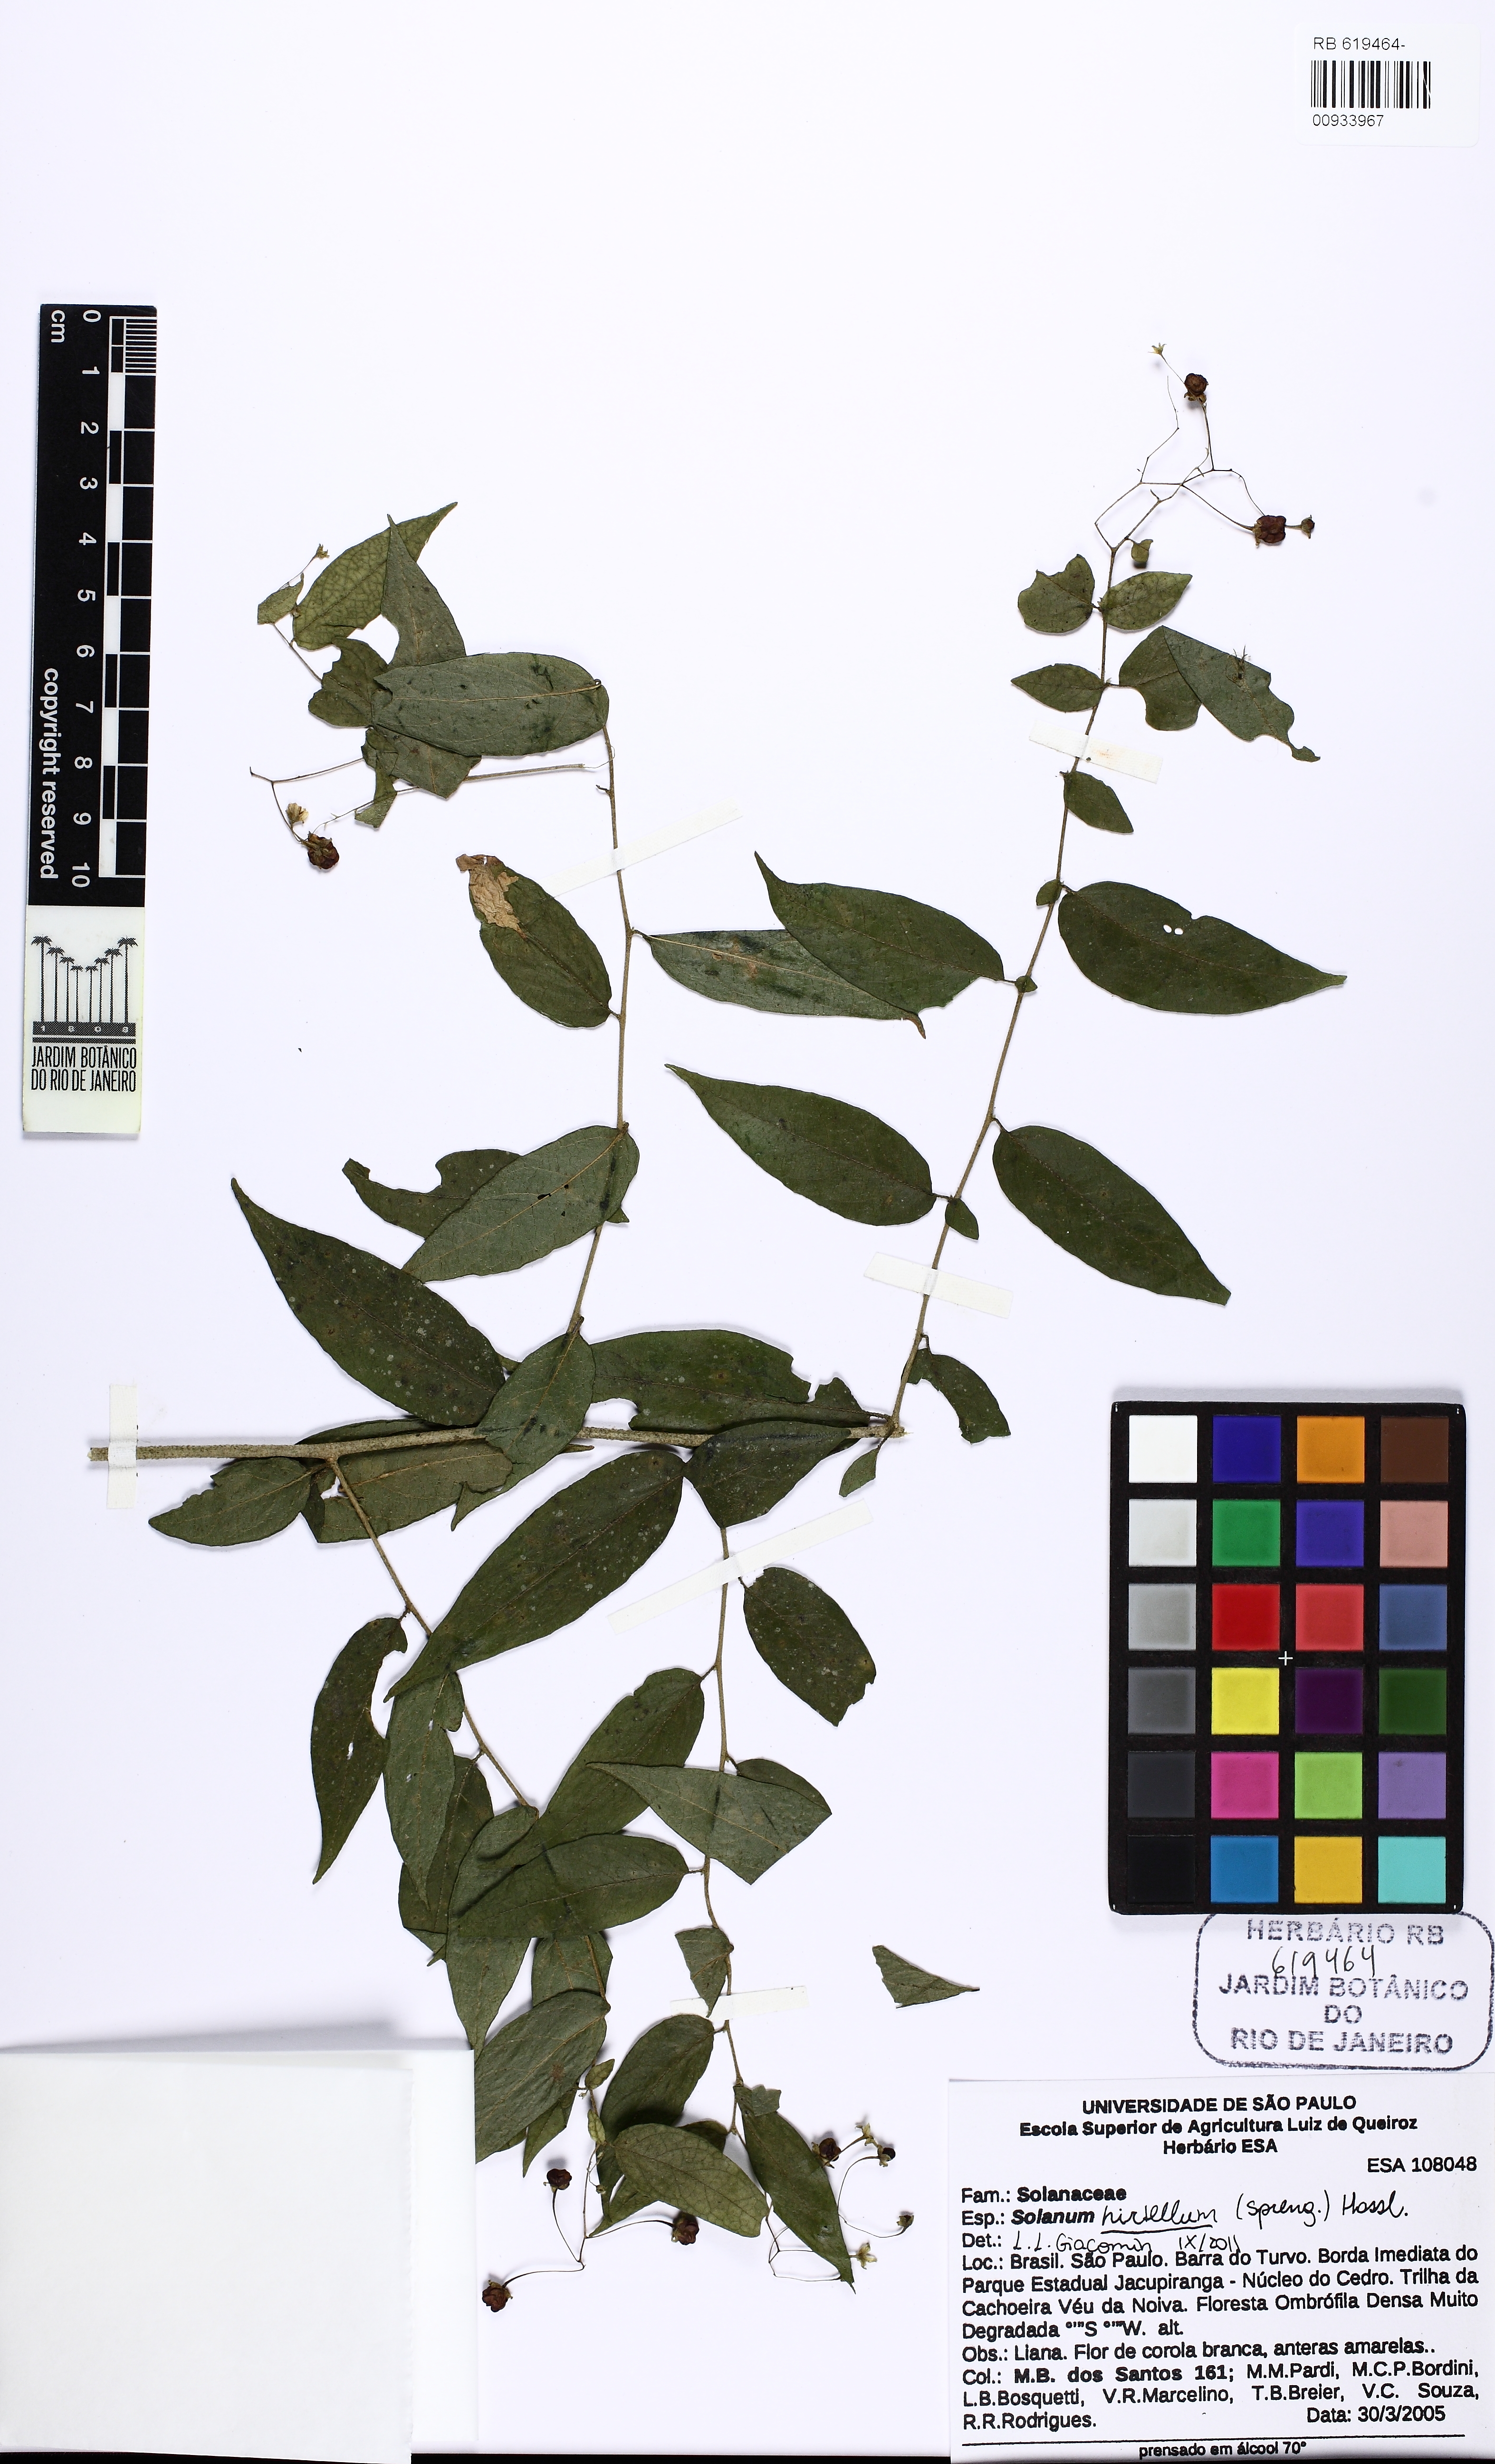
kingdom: Plantae
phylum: Tracheophyta
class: Magnoliopsida
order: Solanales
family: Solanaceae
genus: Solanum
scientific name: Solanum hirtellum
